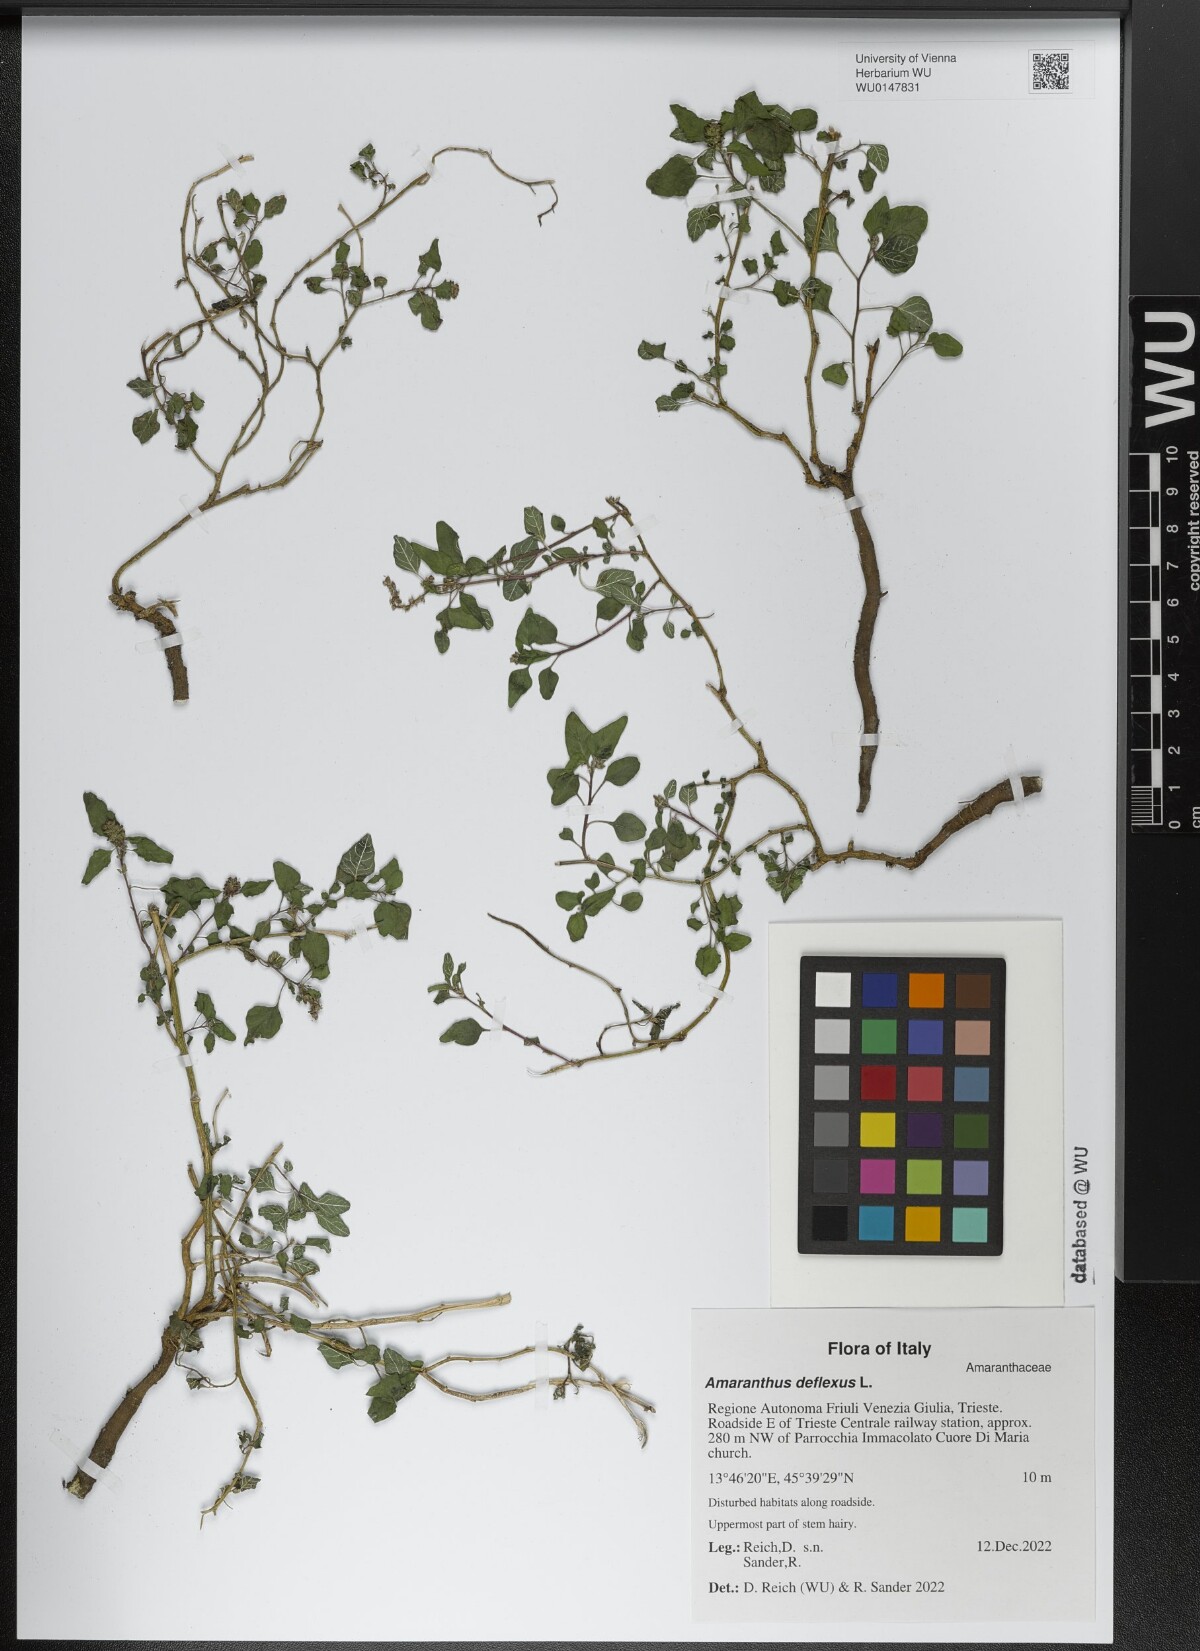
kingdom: Plantae
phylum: Tracheophyta
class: Magnoliopsida
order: Caryophyllales
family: Amaranthaceae
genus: Amaranthus
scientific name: Amaranthus deflexus
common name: Perennial pigweed
